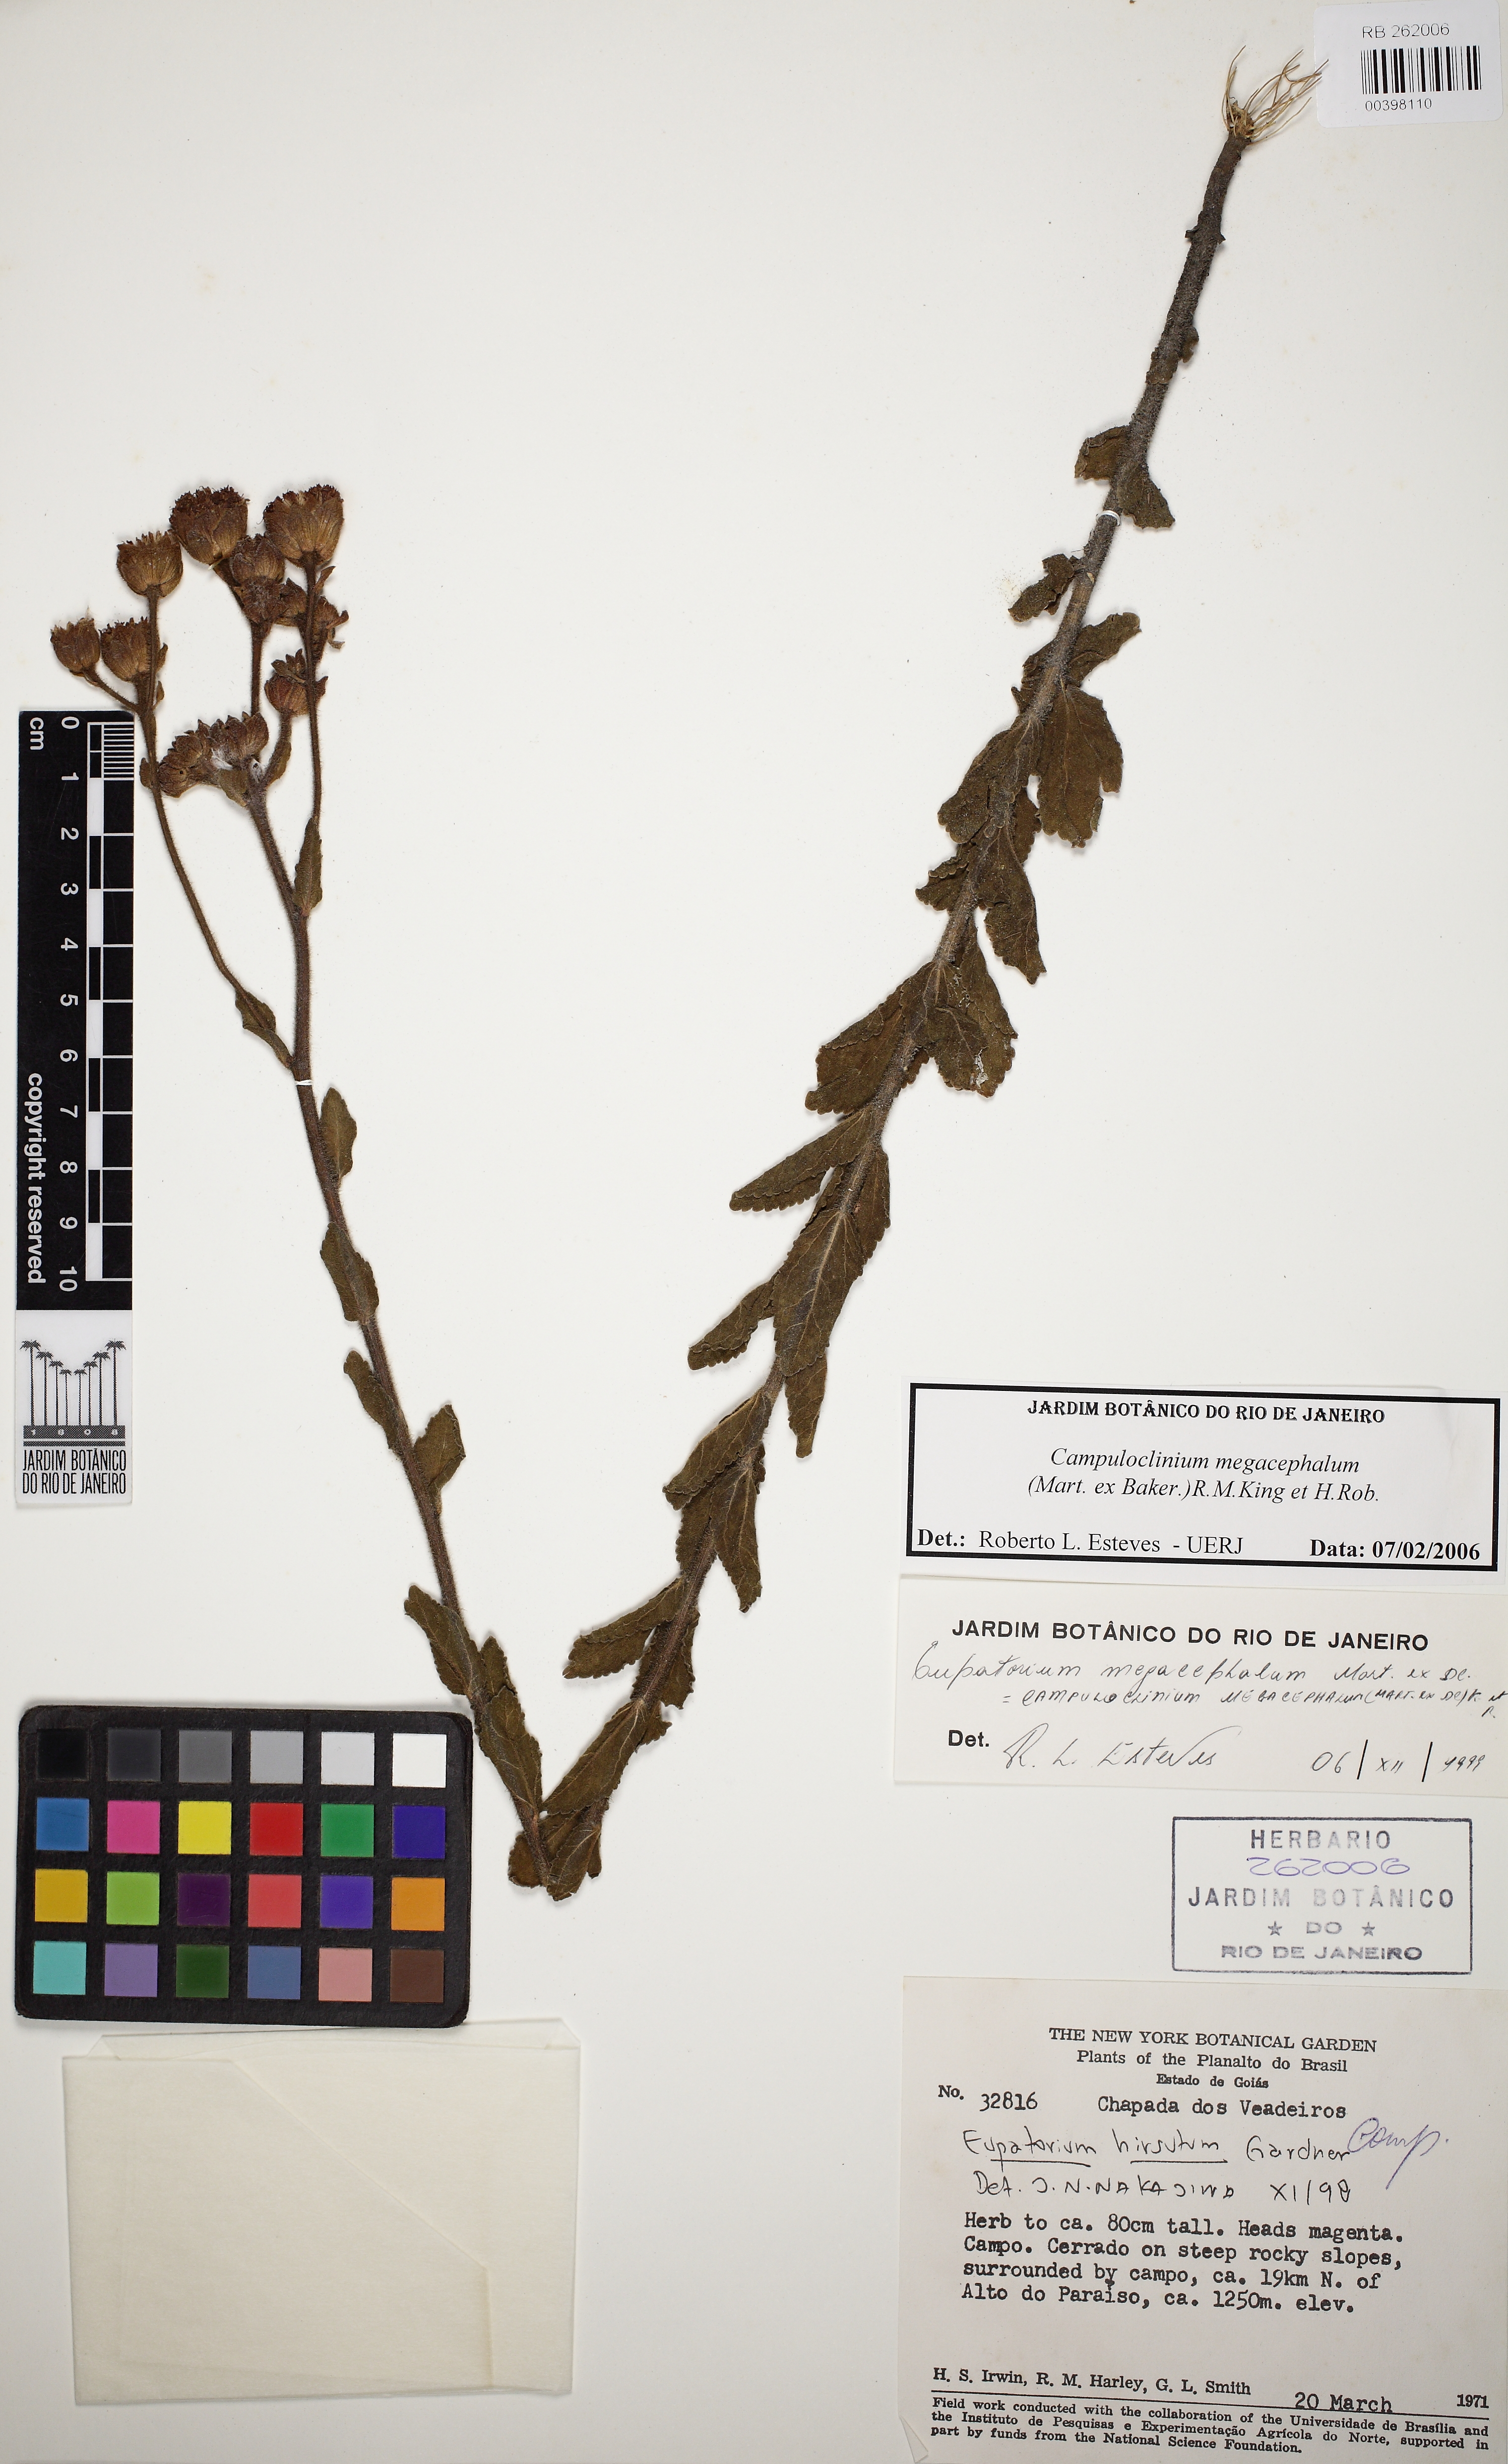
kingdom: Plantae
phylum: Tracheophyta
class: Magnoliopsida
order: Asterales
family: Asteraceae
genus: Campuloclinium
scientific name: Campuloclinium megacephalum
